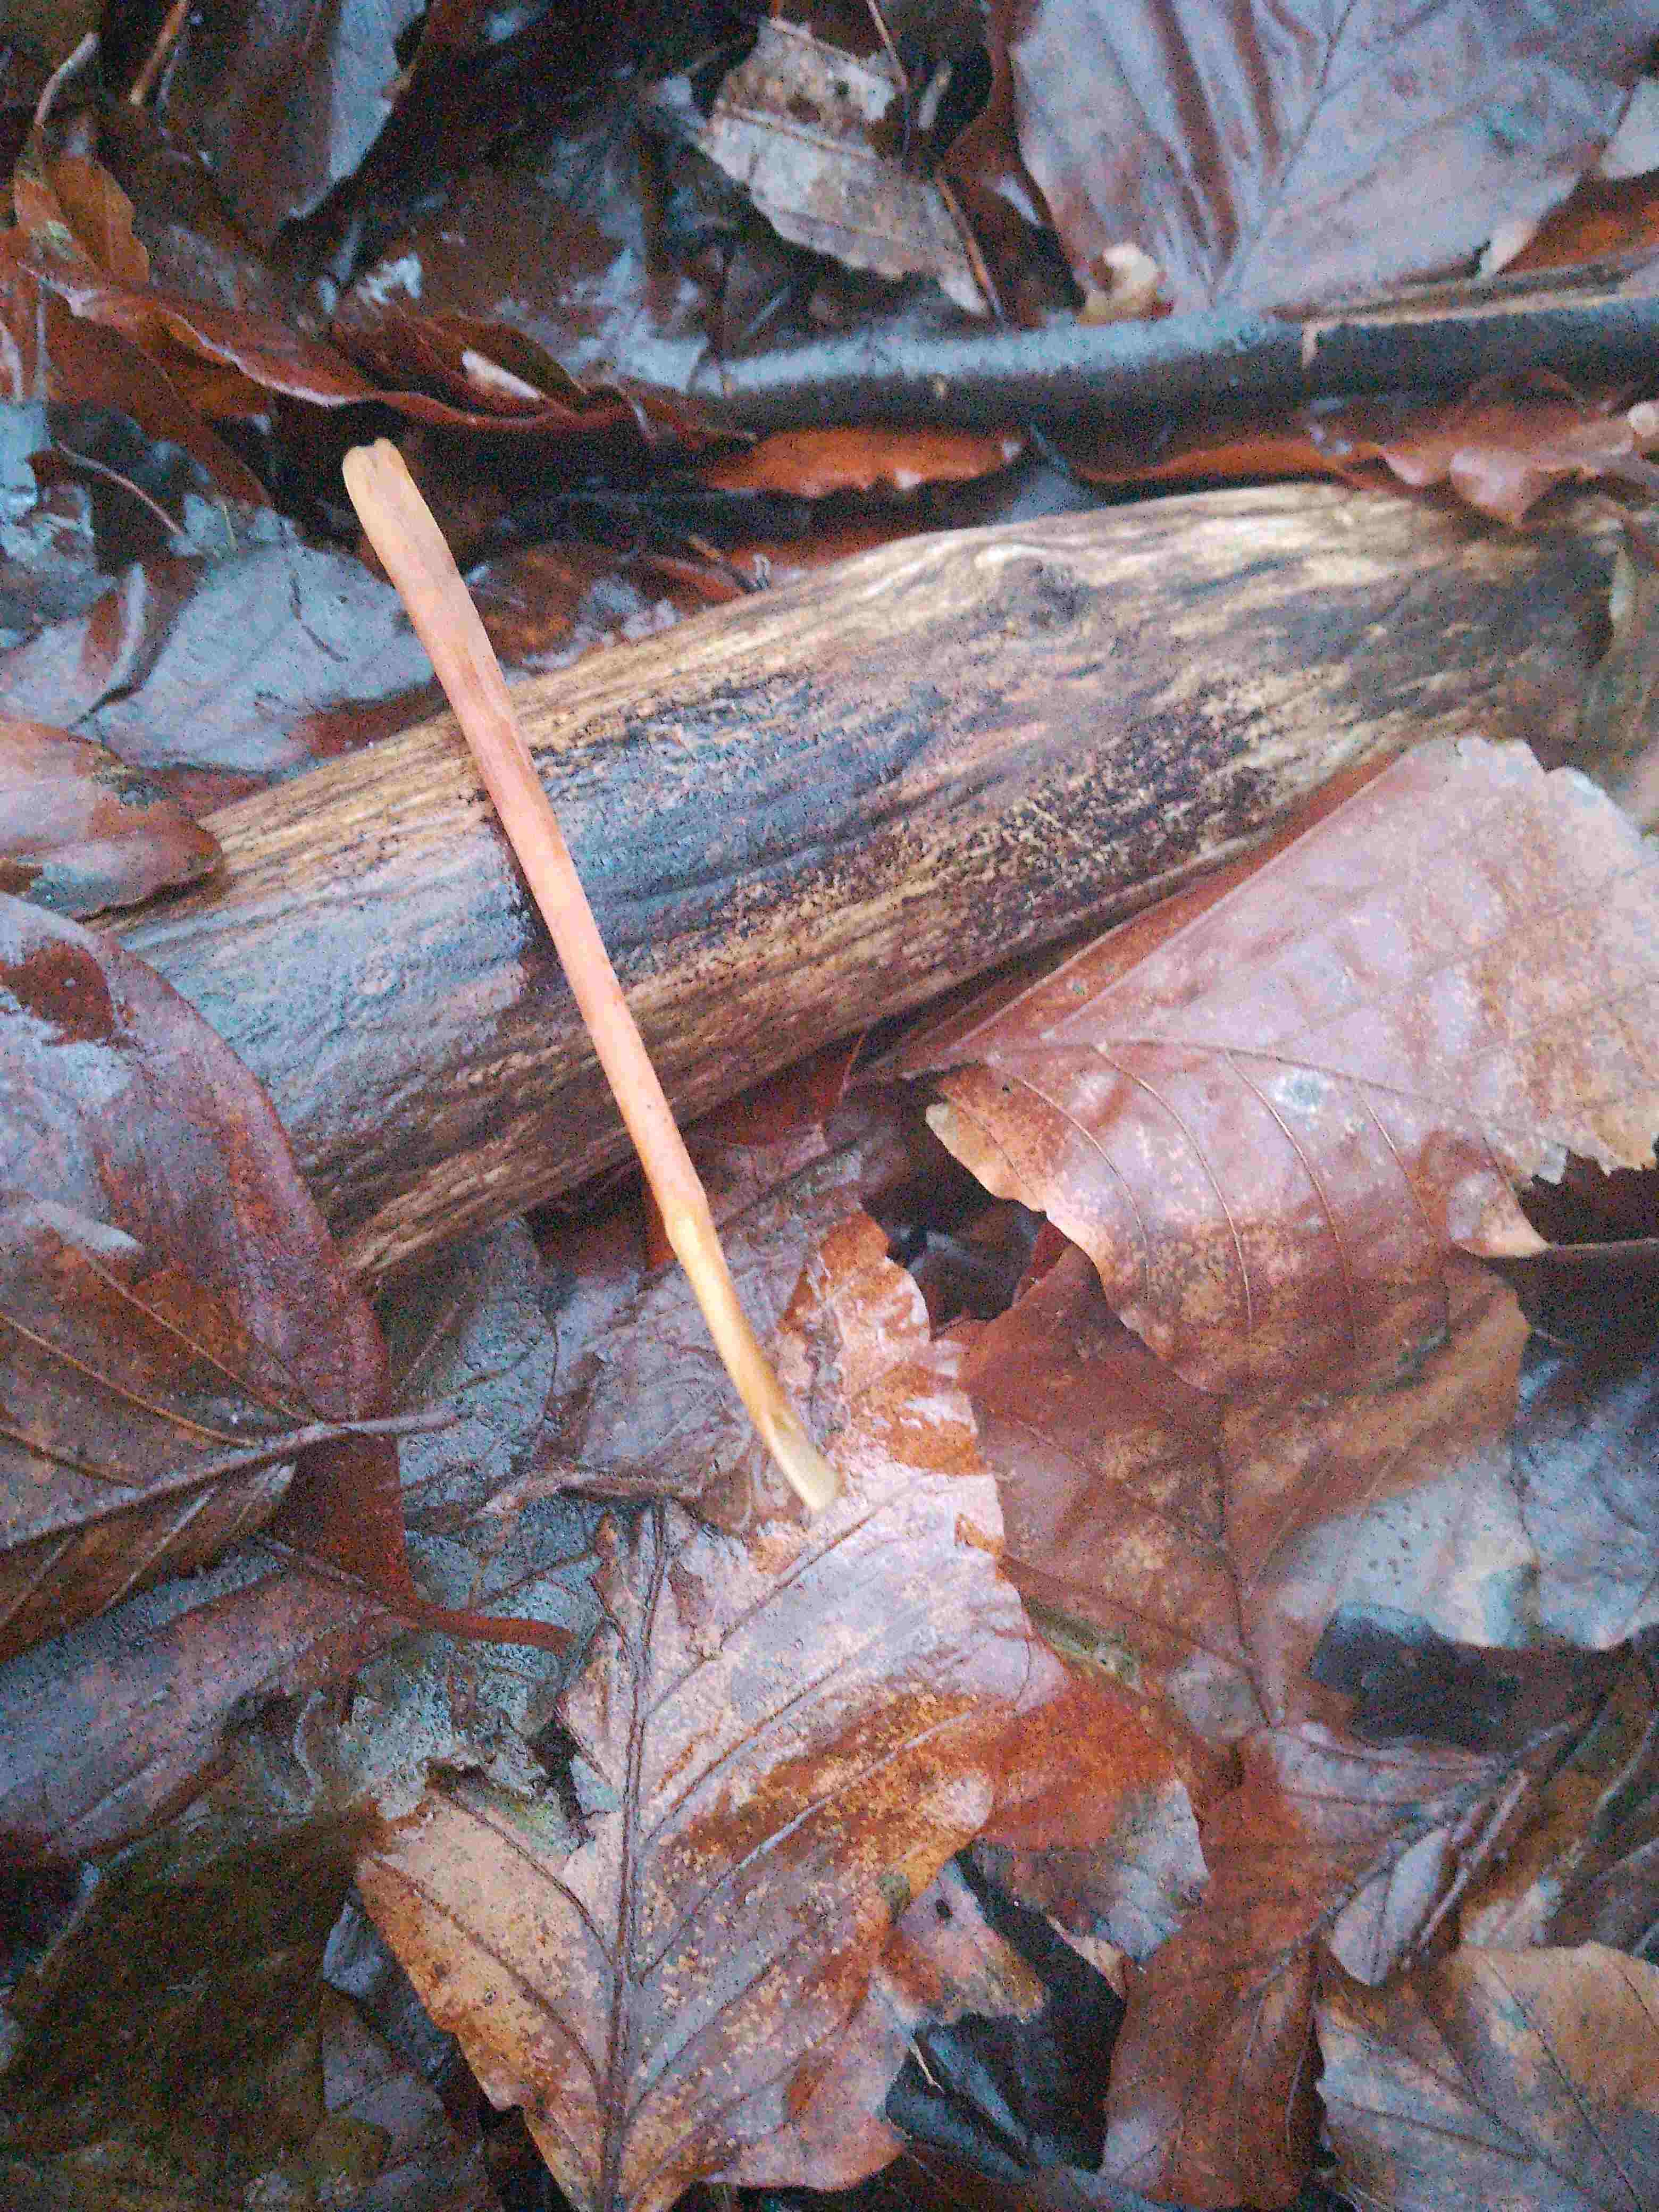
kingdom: Fungi
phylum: Basidiomycota
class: Agaricomycetes
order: Agaricales
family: Typhulaceae
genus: Typhula
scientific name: Typhula fistulosa
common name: pibet rørkølle
